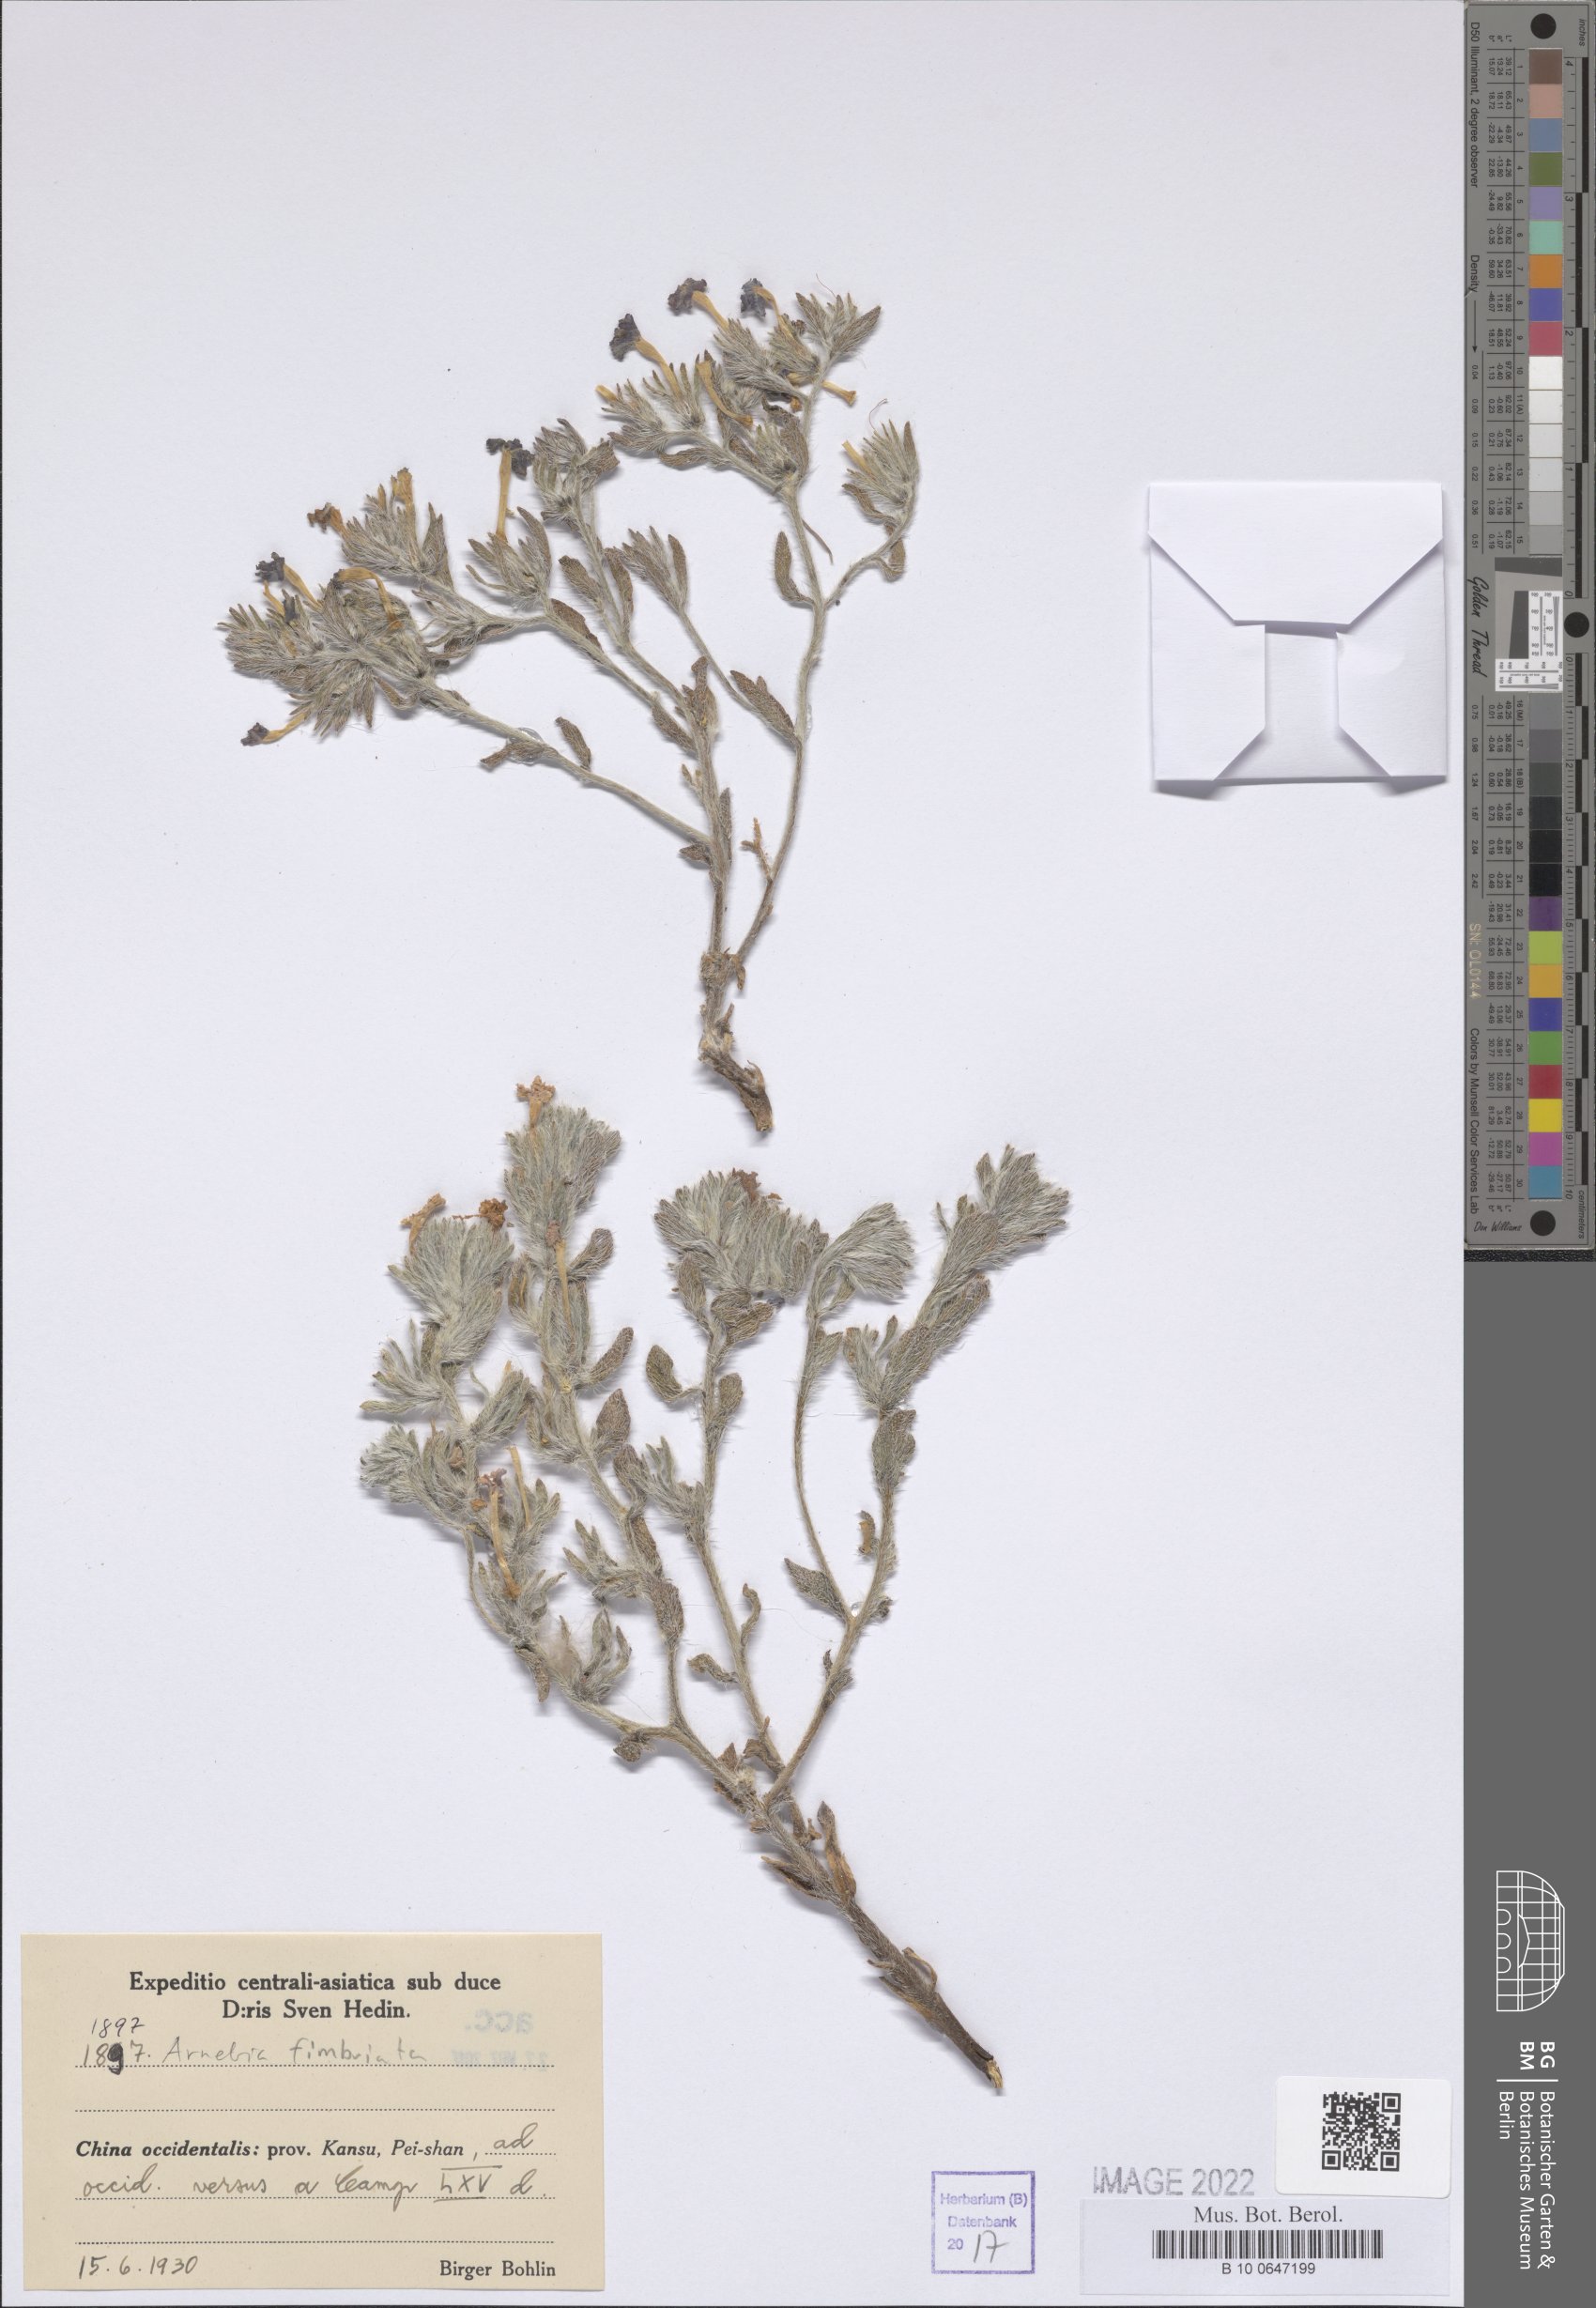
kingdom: Plantae
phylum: Tracheophyta
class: Magnoliopsida
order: Boraginales
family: Boraginaceae
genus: Arnebia
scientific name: Arnebia fimbriata
